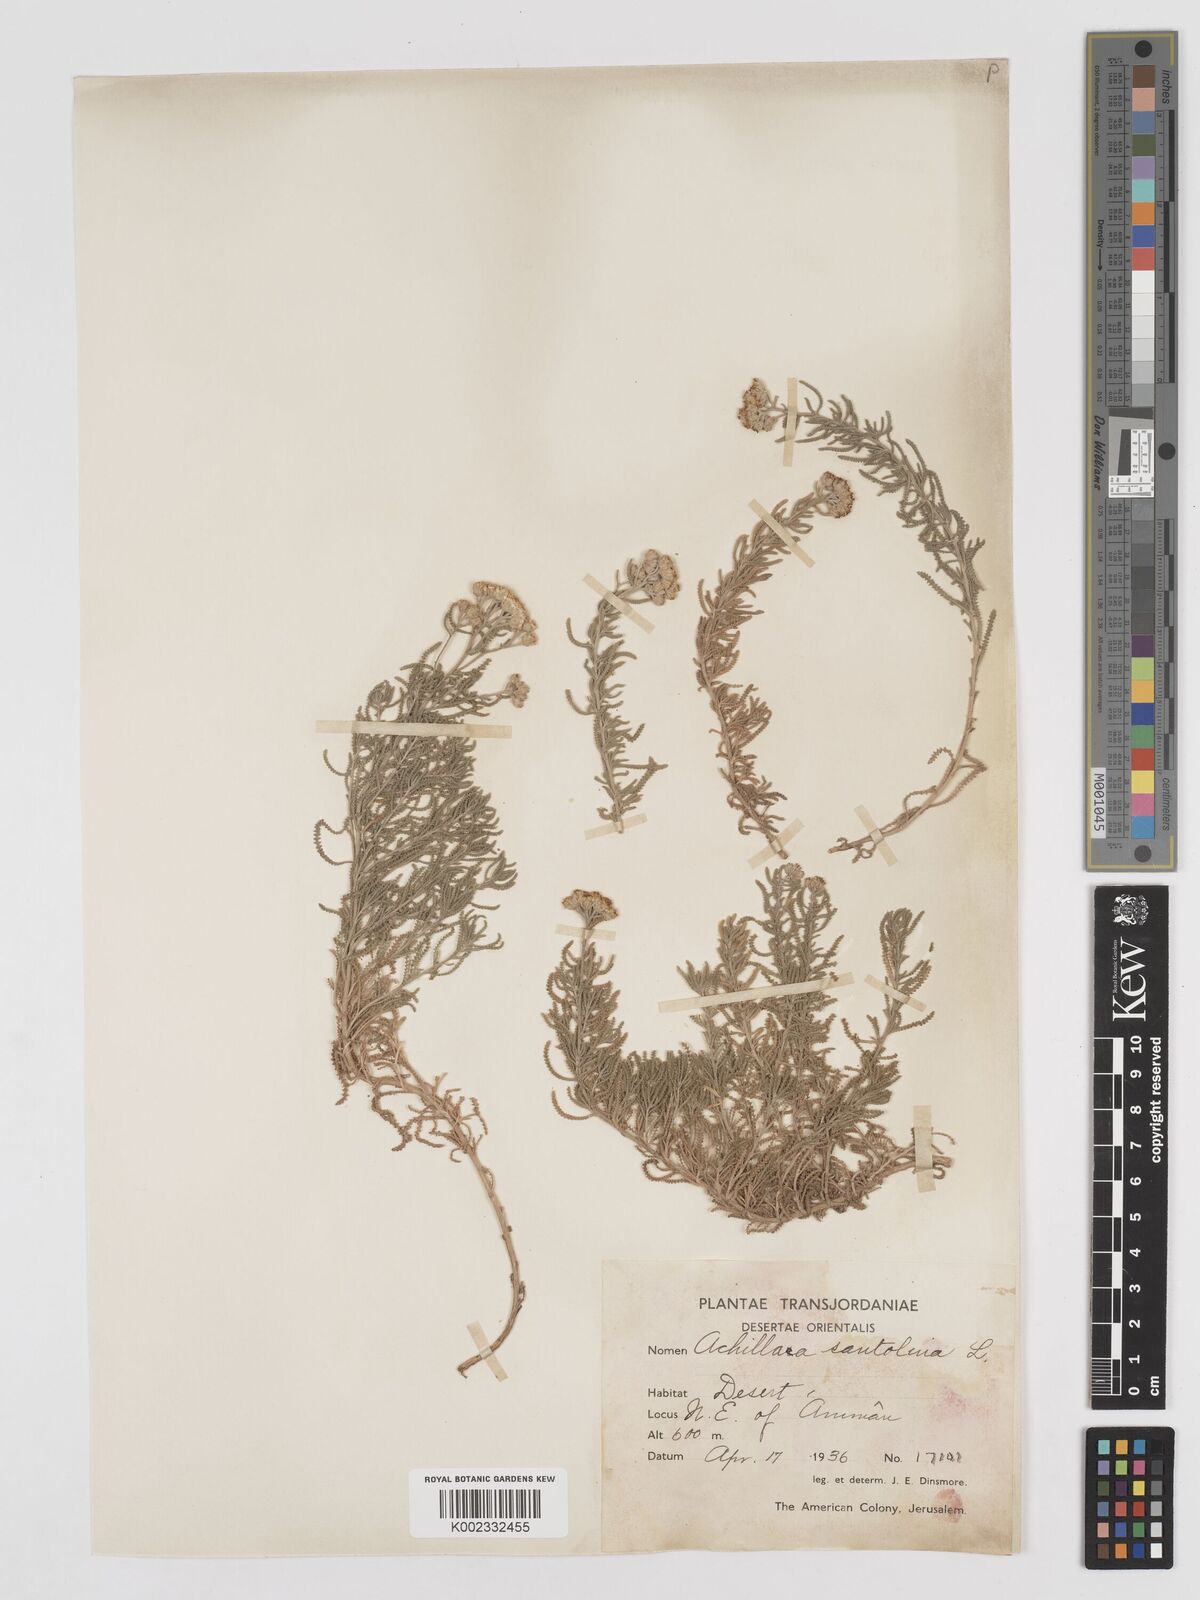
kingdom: Plantae
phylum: Tracheophyta
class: Magnoliopsida
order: Asterales
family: Asteraceae
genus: Achillea
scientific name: Achillea tenuifolia
